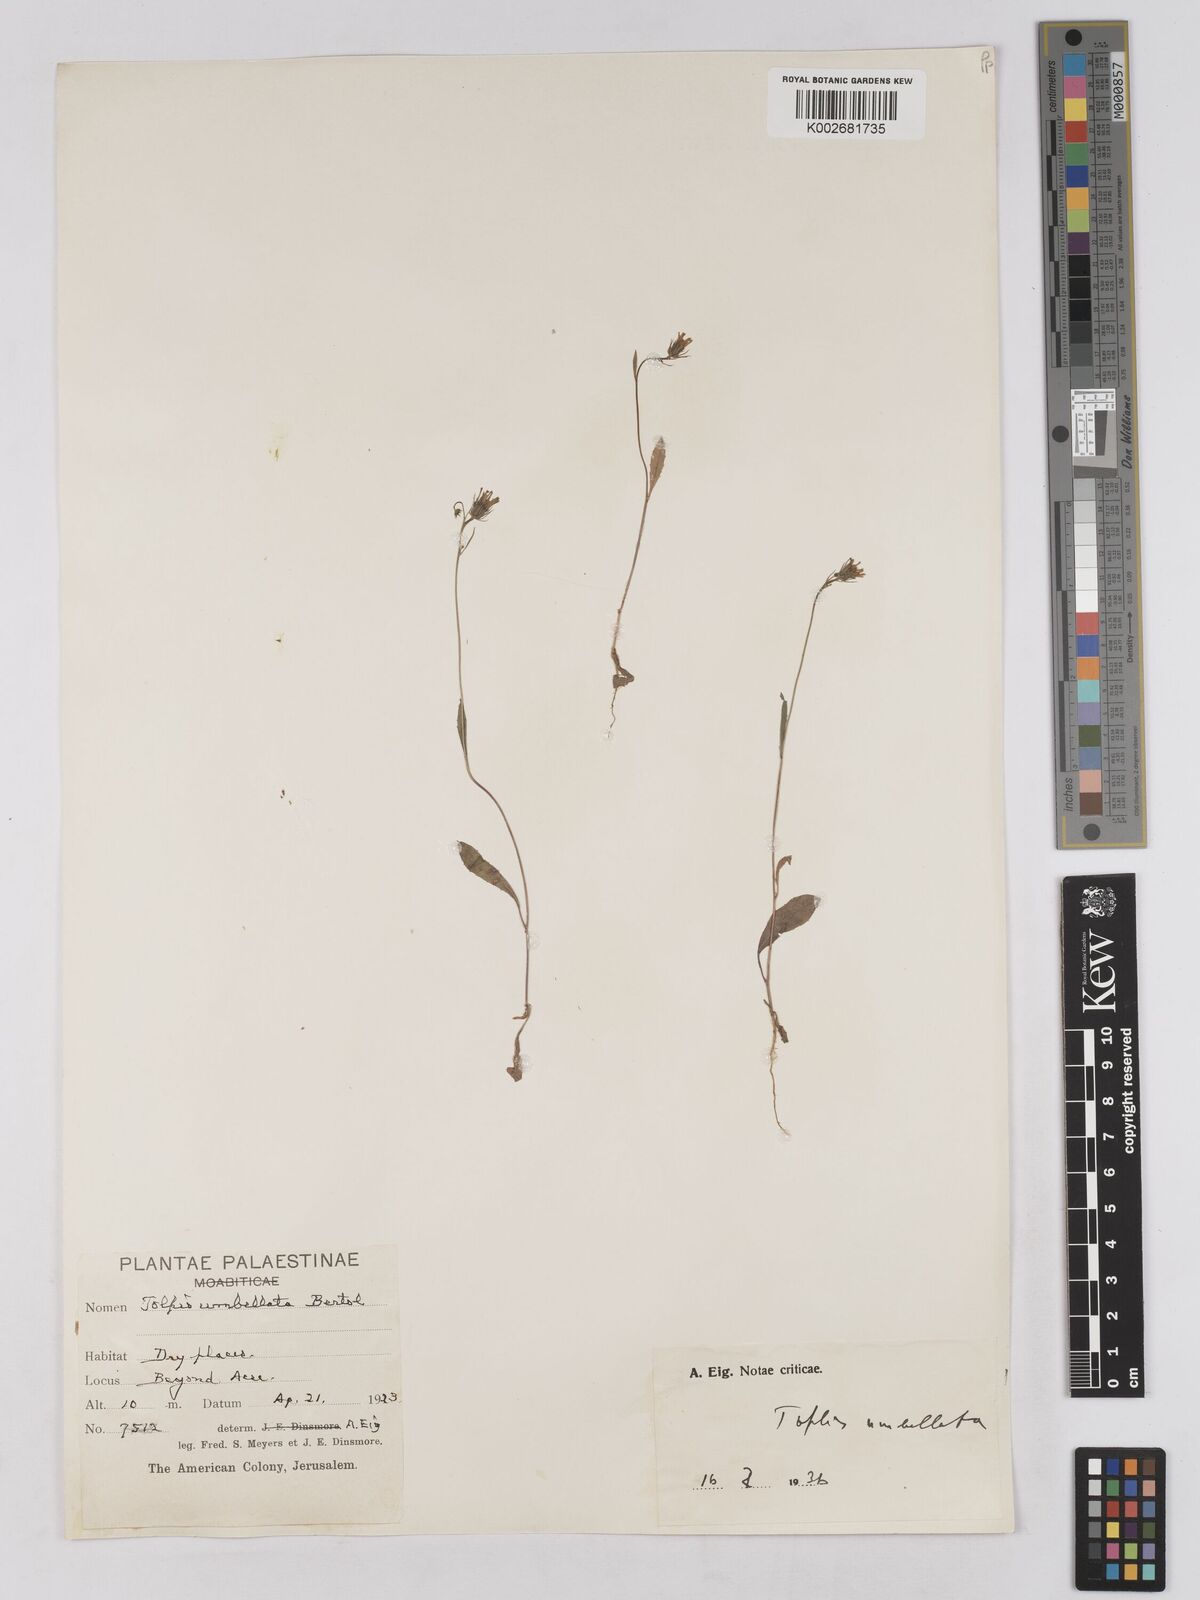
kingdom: Plantae
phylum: Tracheophyta
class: Magnoliopsida
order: Asterales
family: Asteraceae
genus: Tolpis
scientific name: Tolpis virgata
